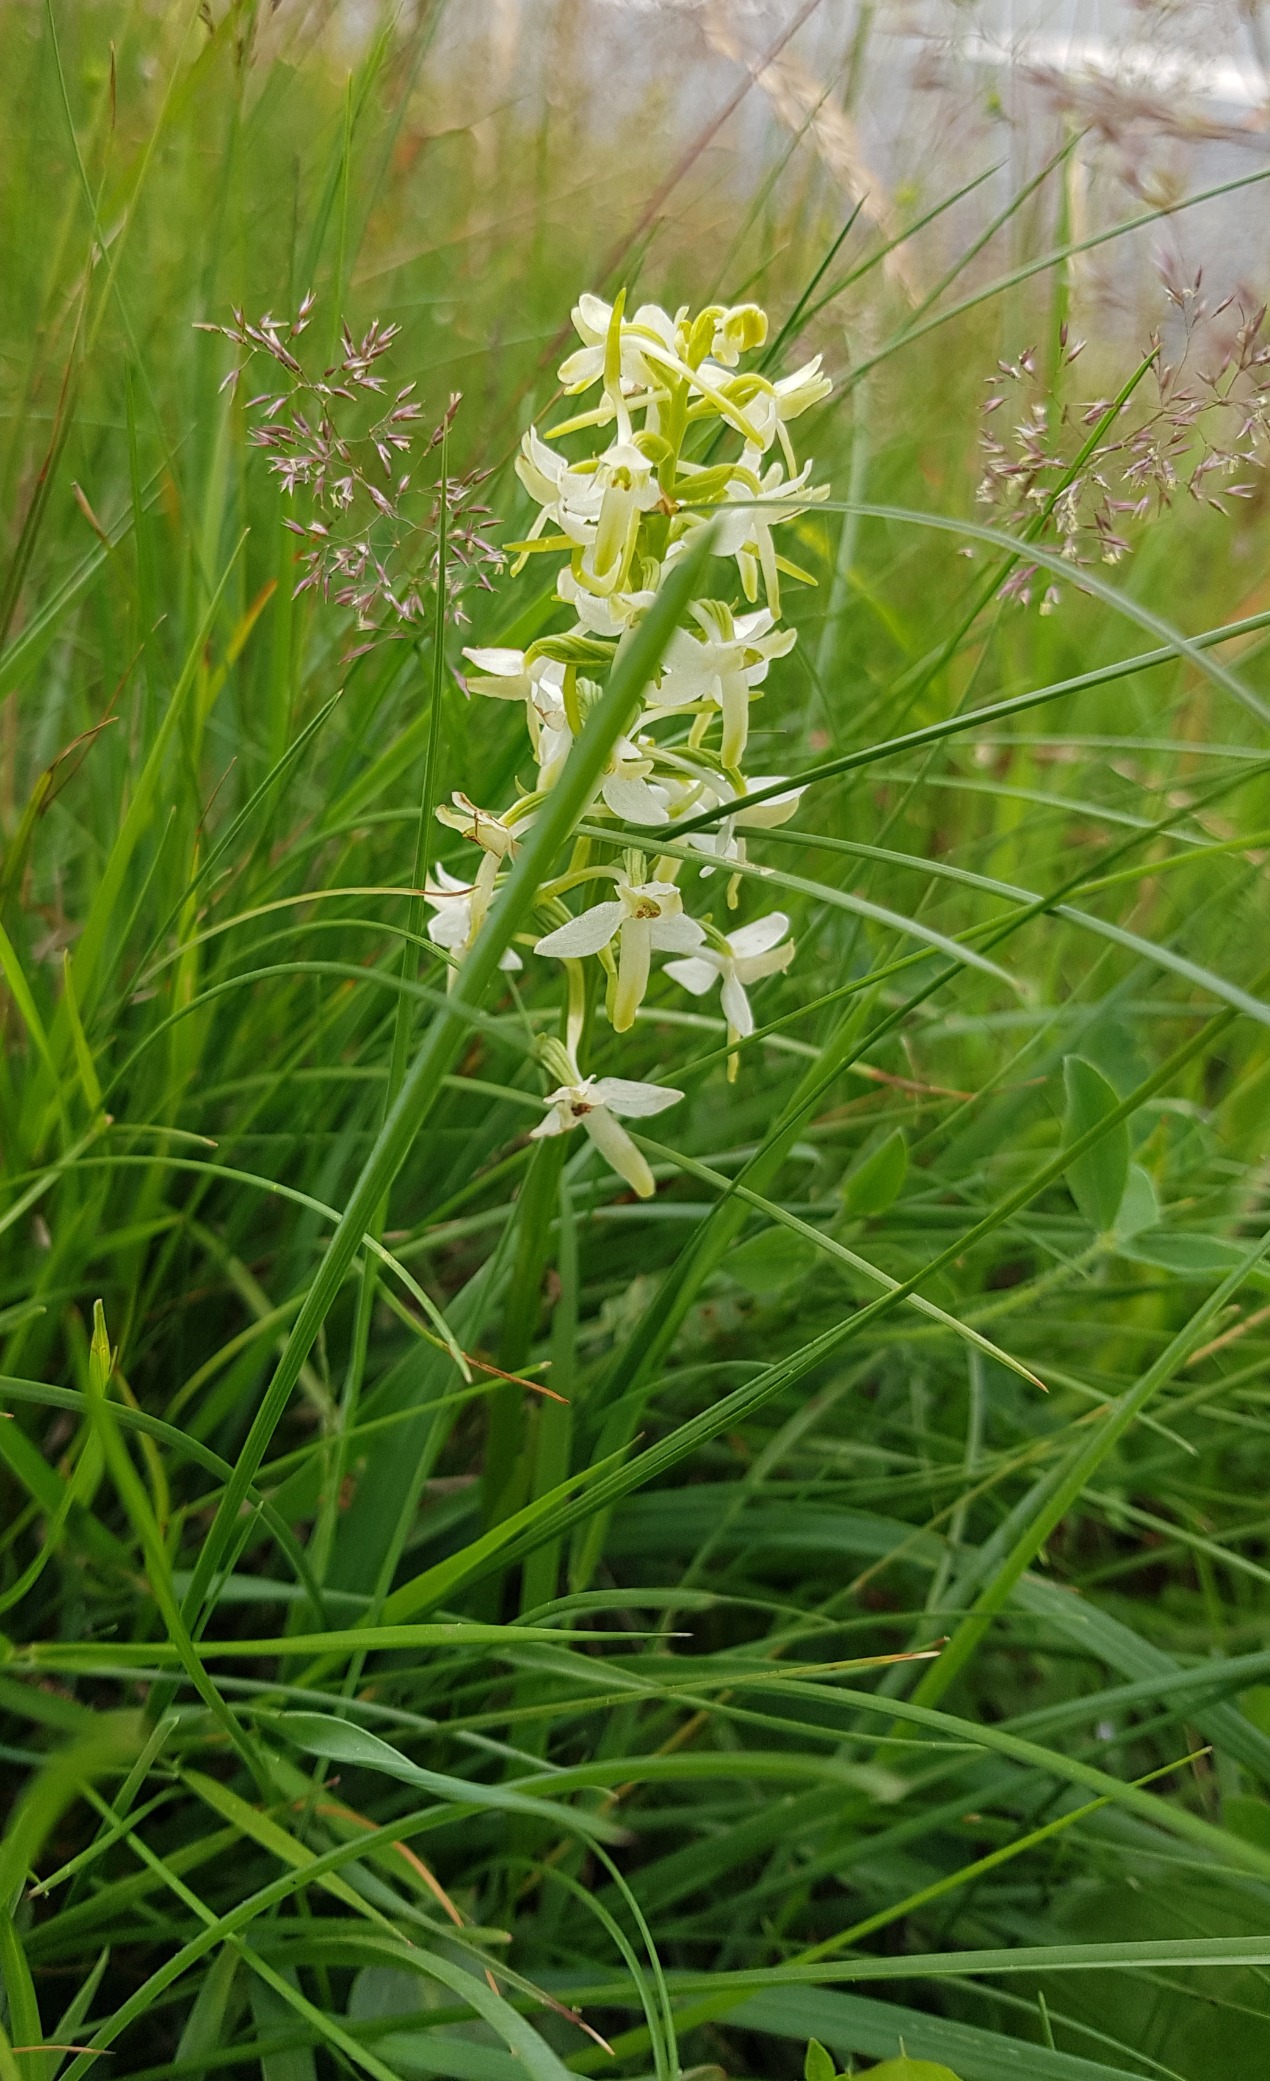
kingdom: Plantae
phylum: Tracheophyta
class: Liliopsida
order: Asparagales
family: Orchidaceae
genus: Platanthera
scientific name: Platanthera bifolia
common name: Bakke-gøgelilje
